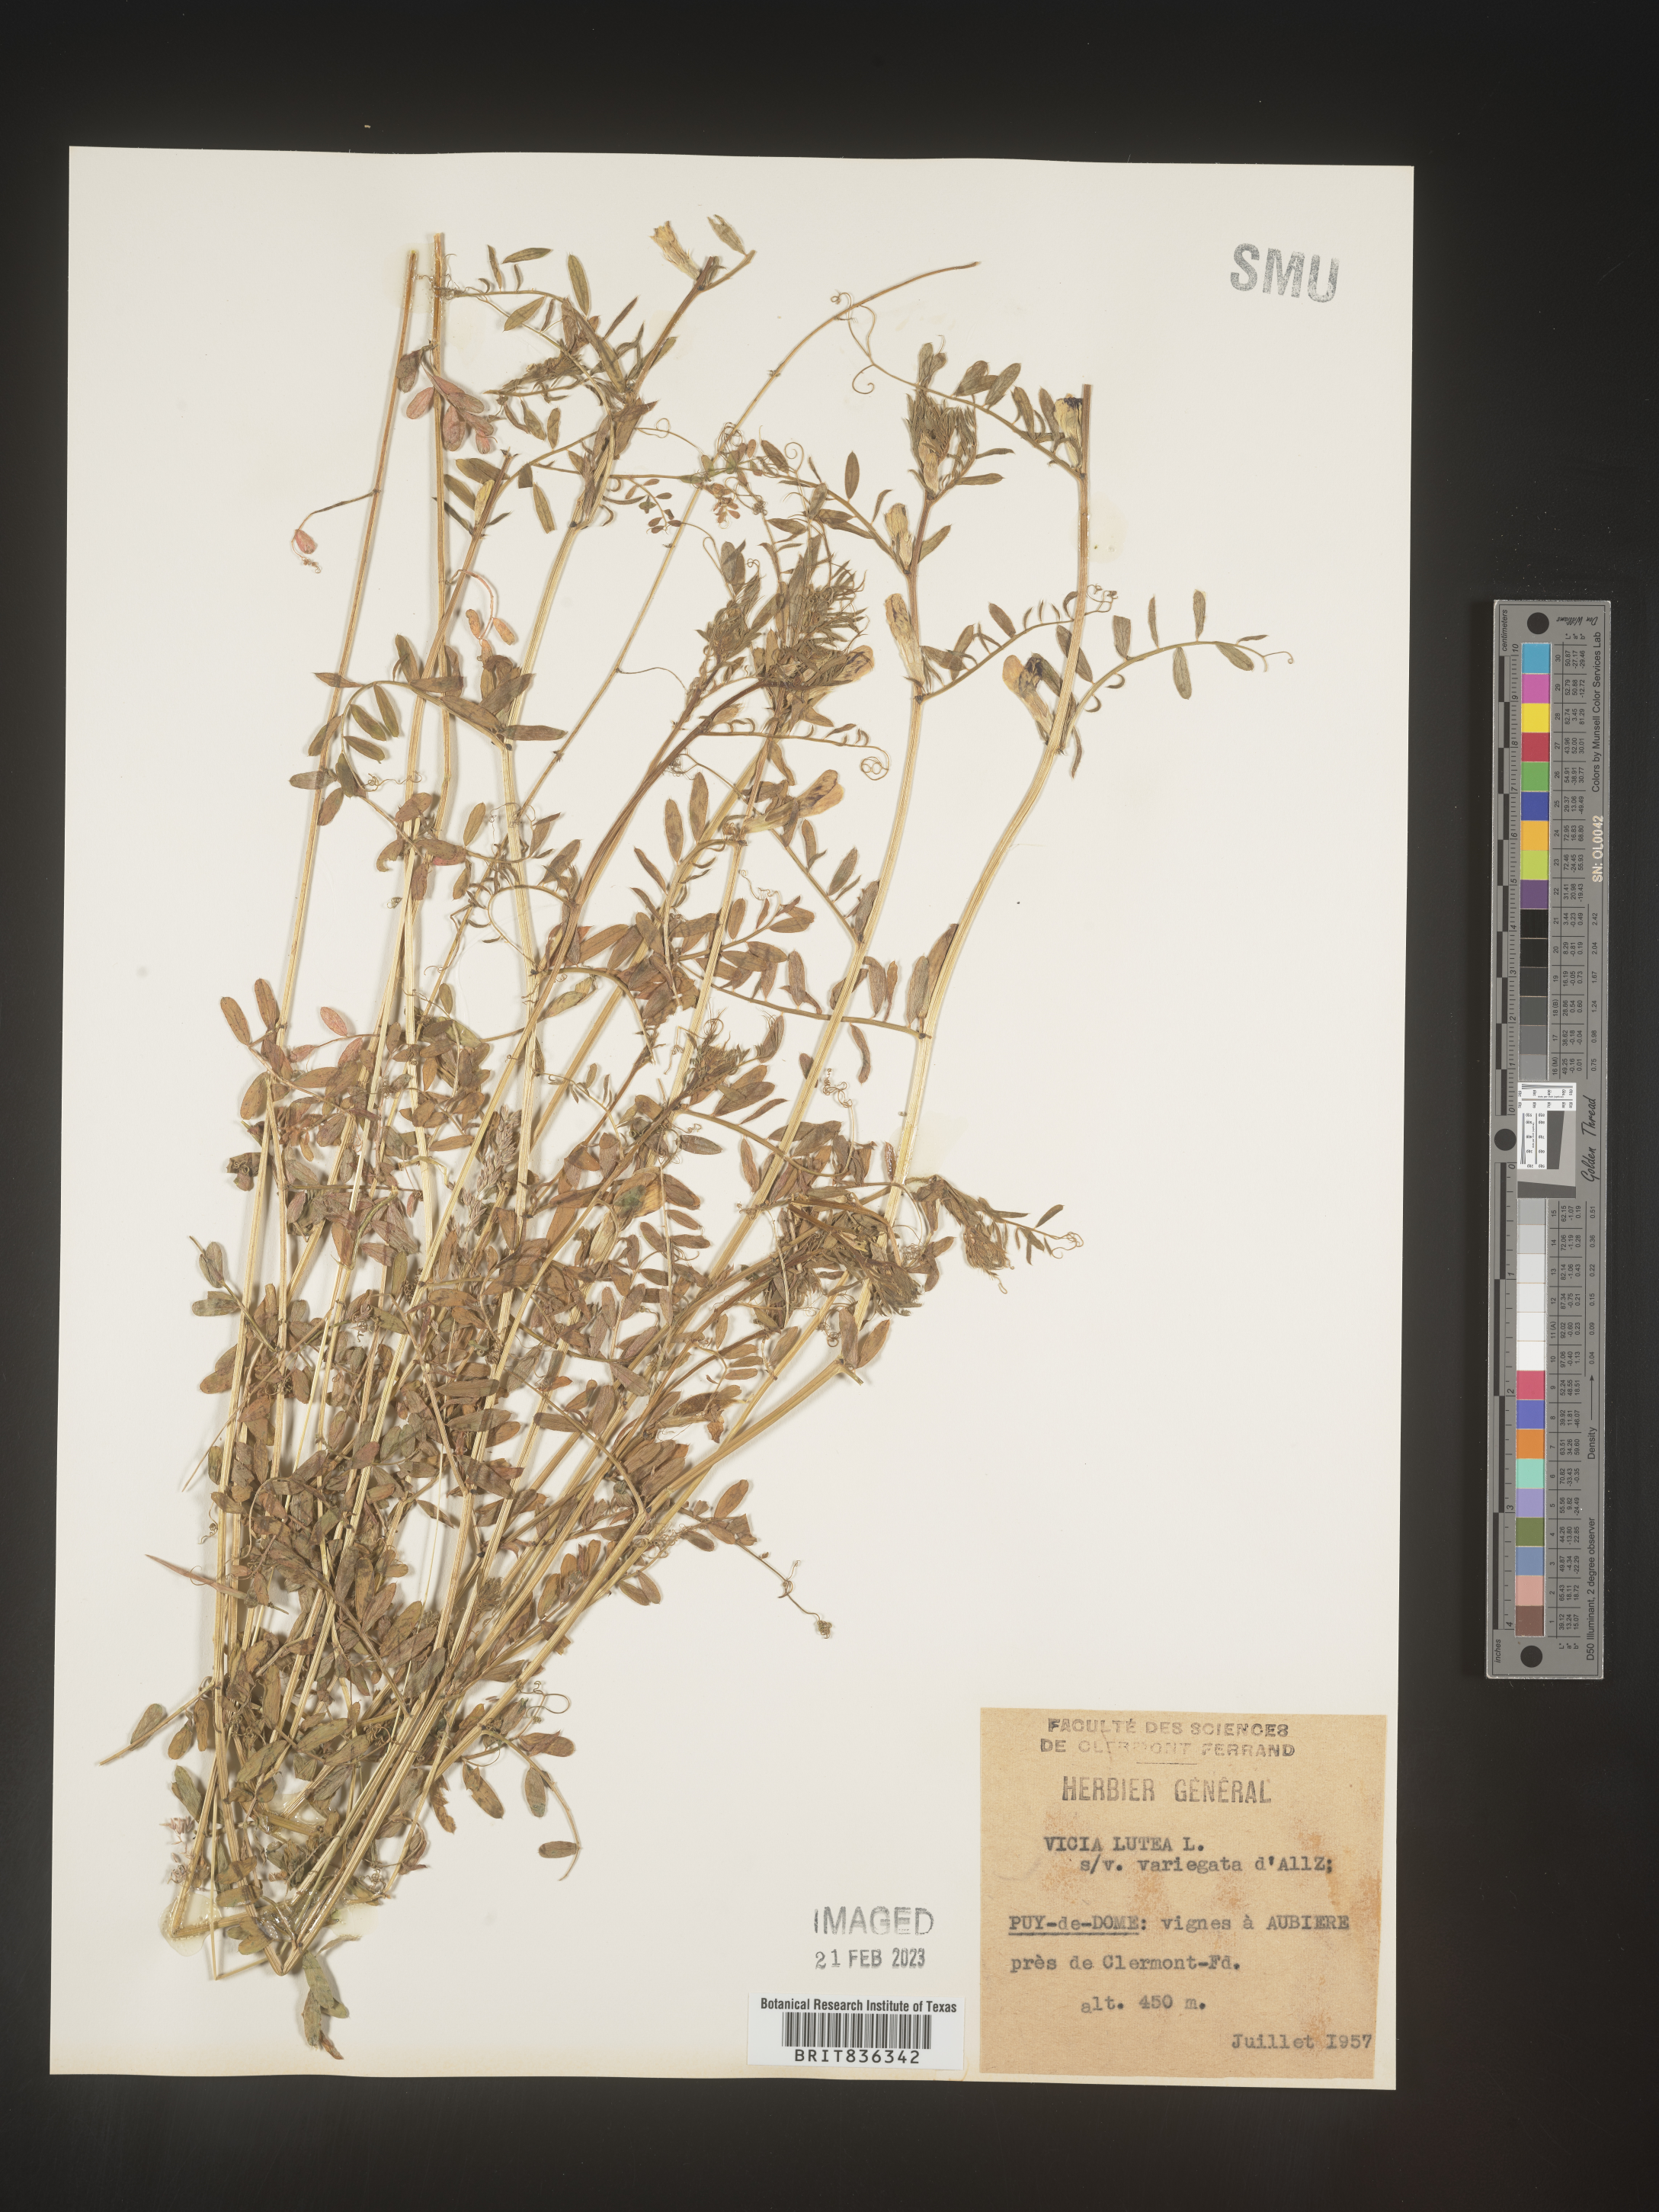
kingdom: Plantae
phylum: Tracheophyta
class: Magnoliopsida
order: Fabales
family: Fabaceae
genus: Vicia
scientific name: Vicia
